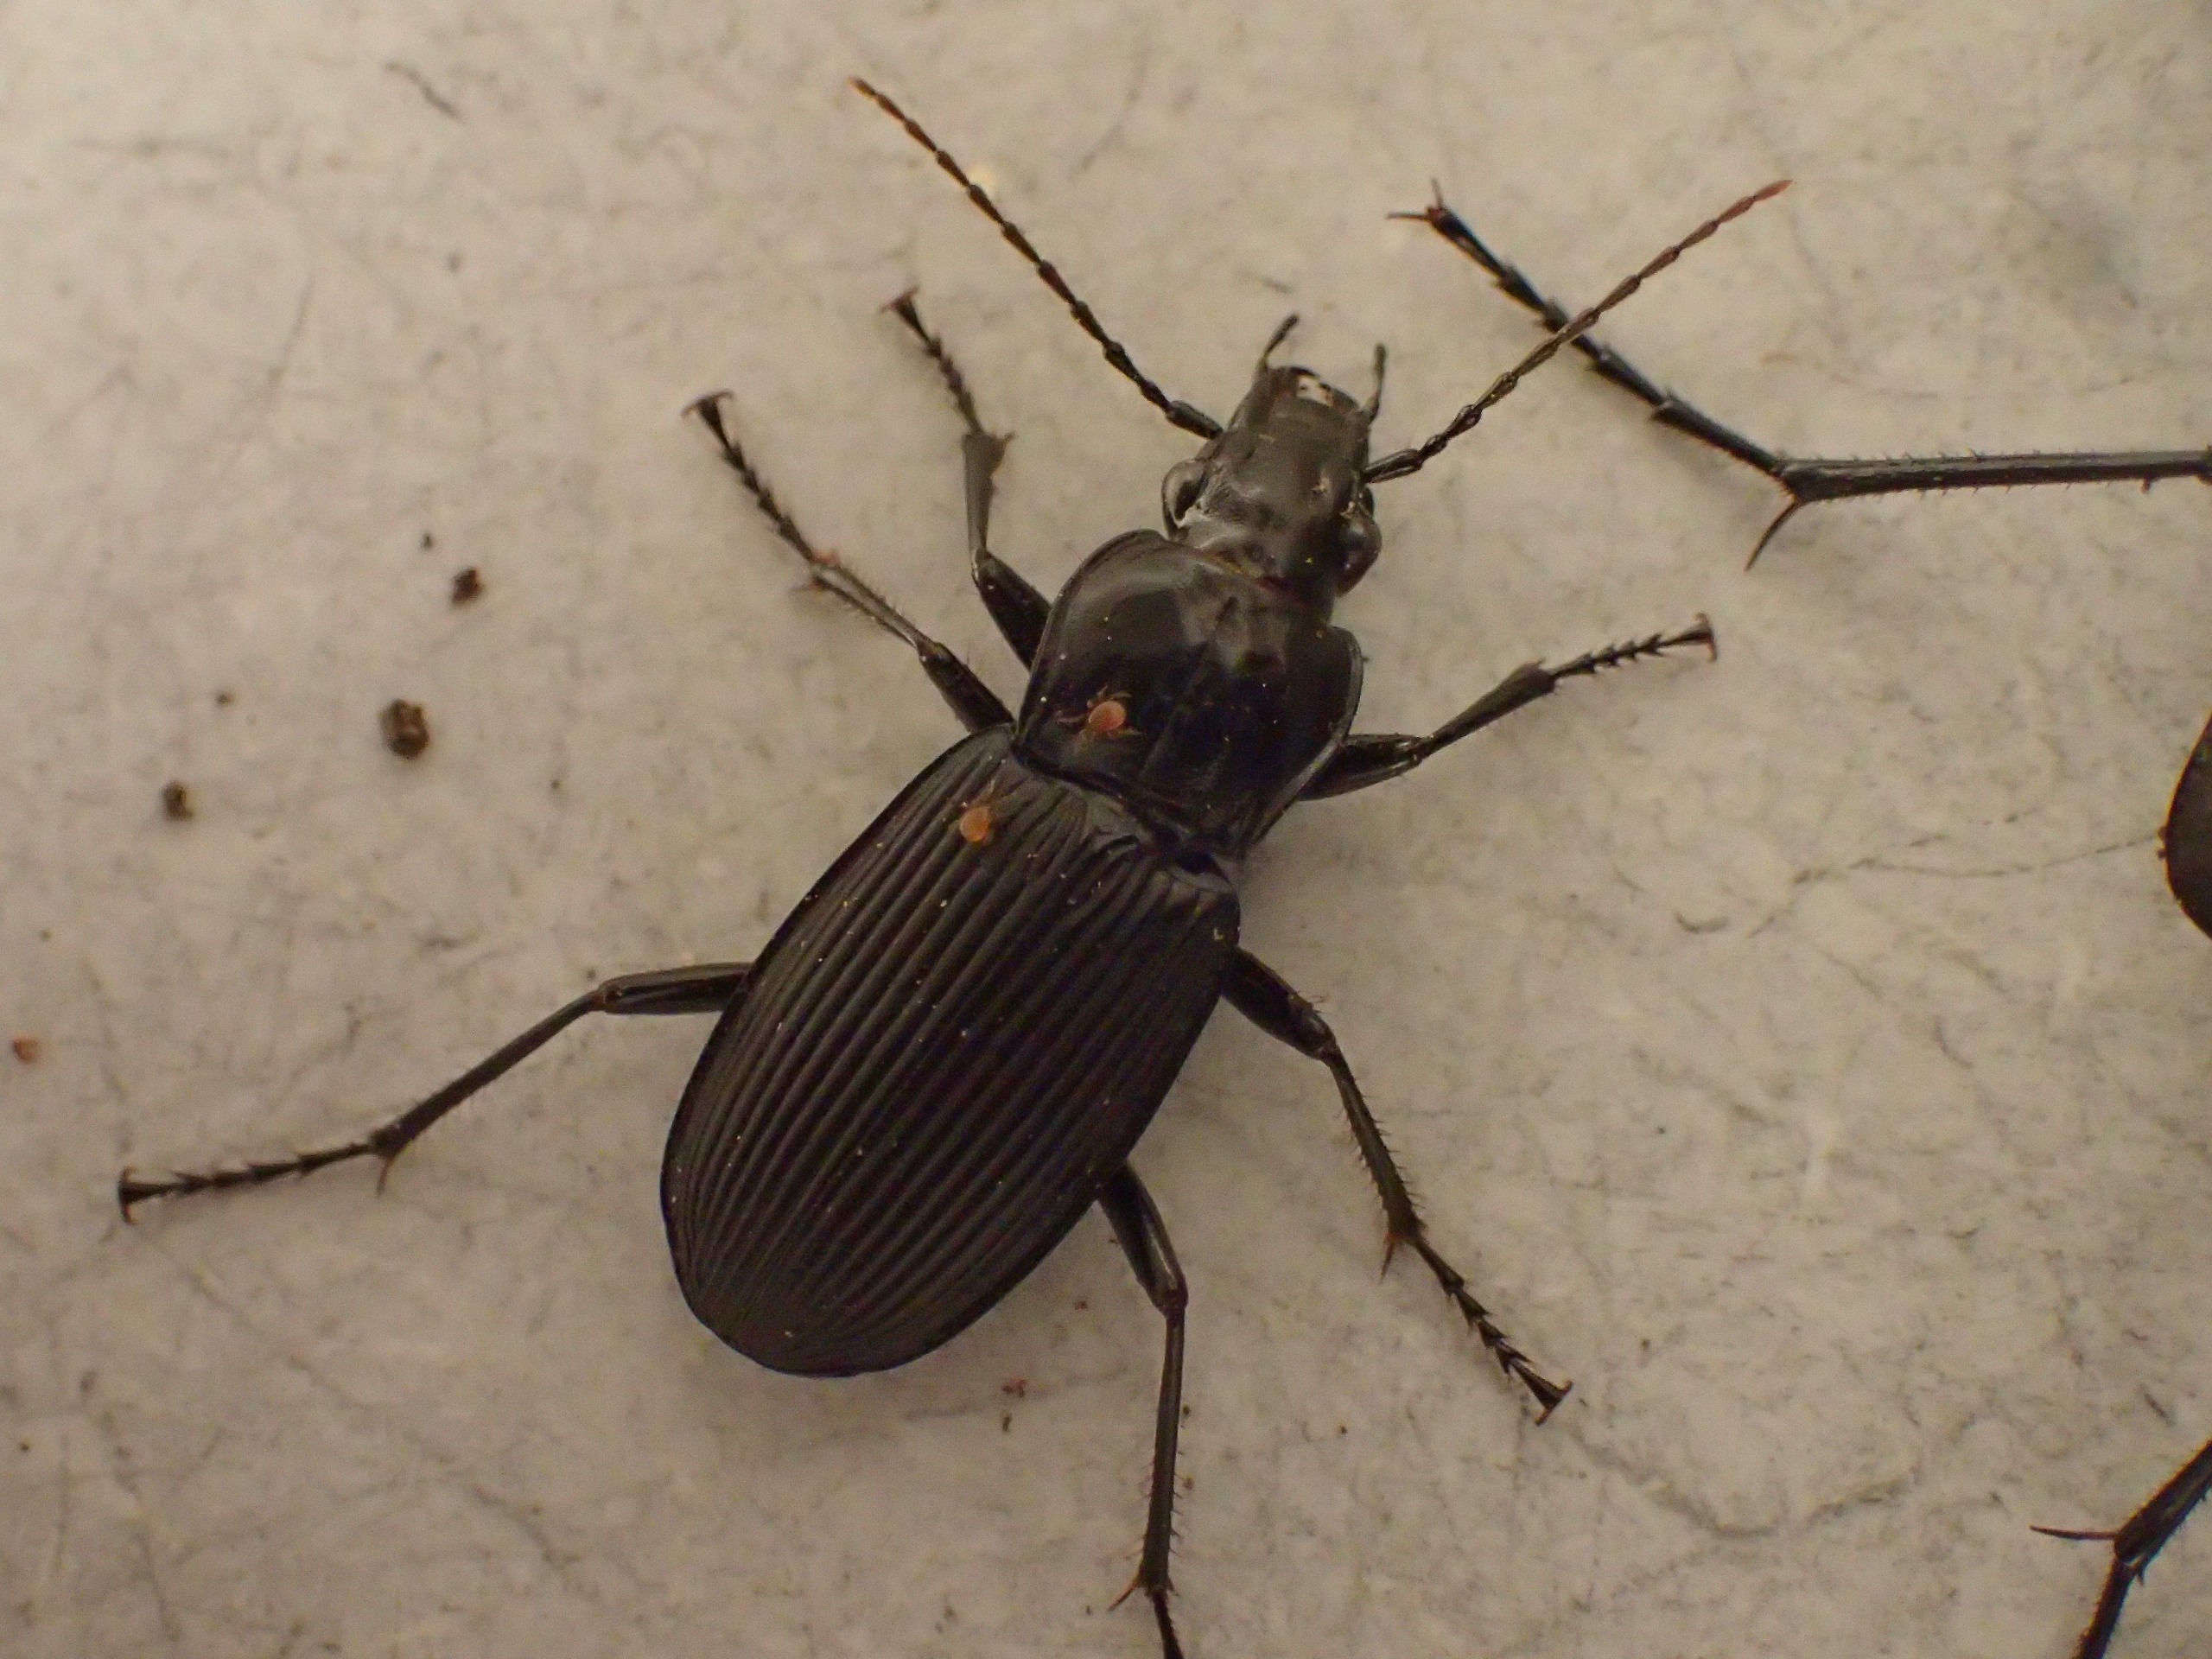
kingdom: Animalia
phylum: Arthropoda
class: Insecta
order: Coleoptera
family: Carabidae
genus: Pterostichus
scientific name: Pterostichus niger
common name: Skovjordløber
